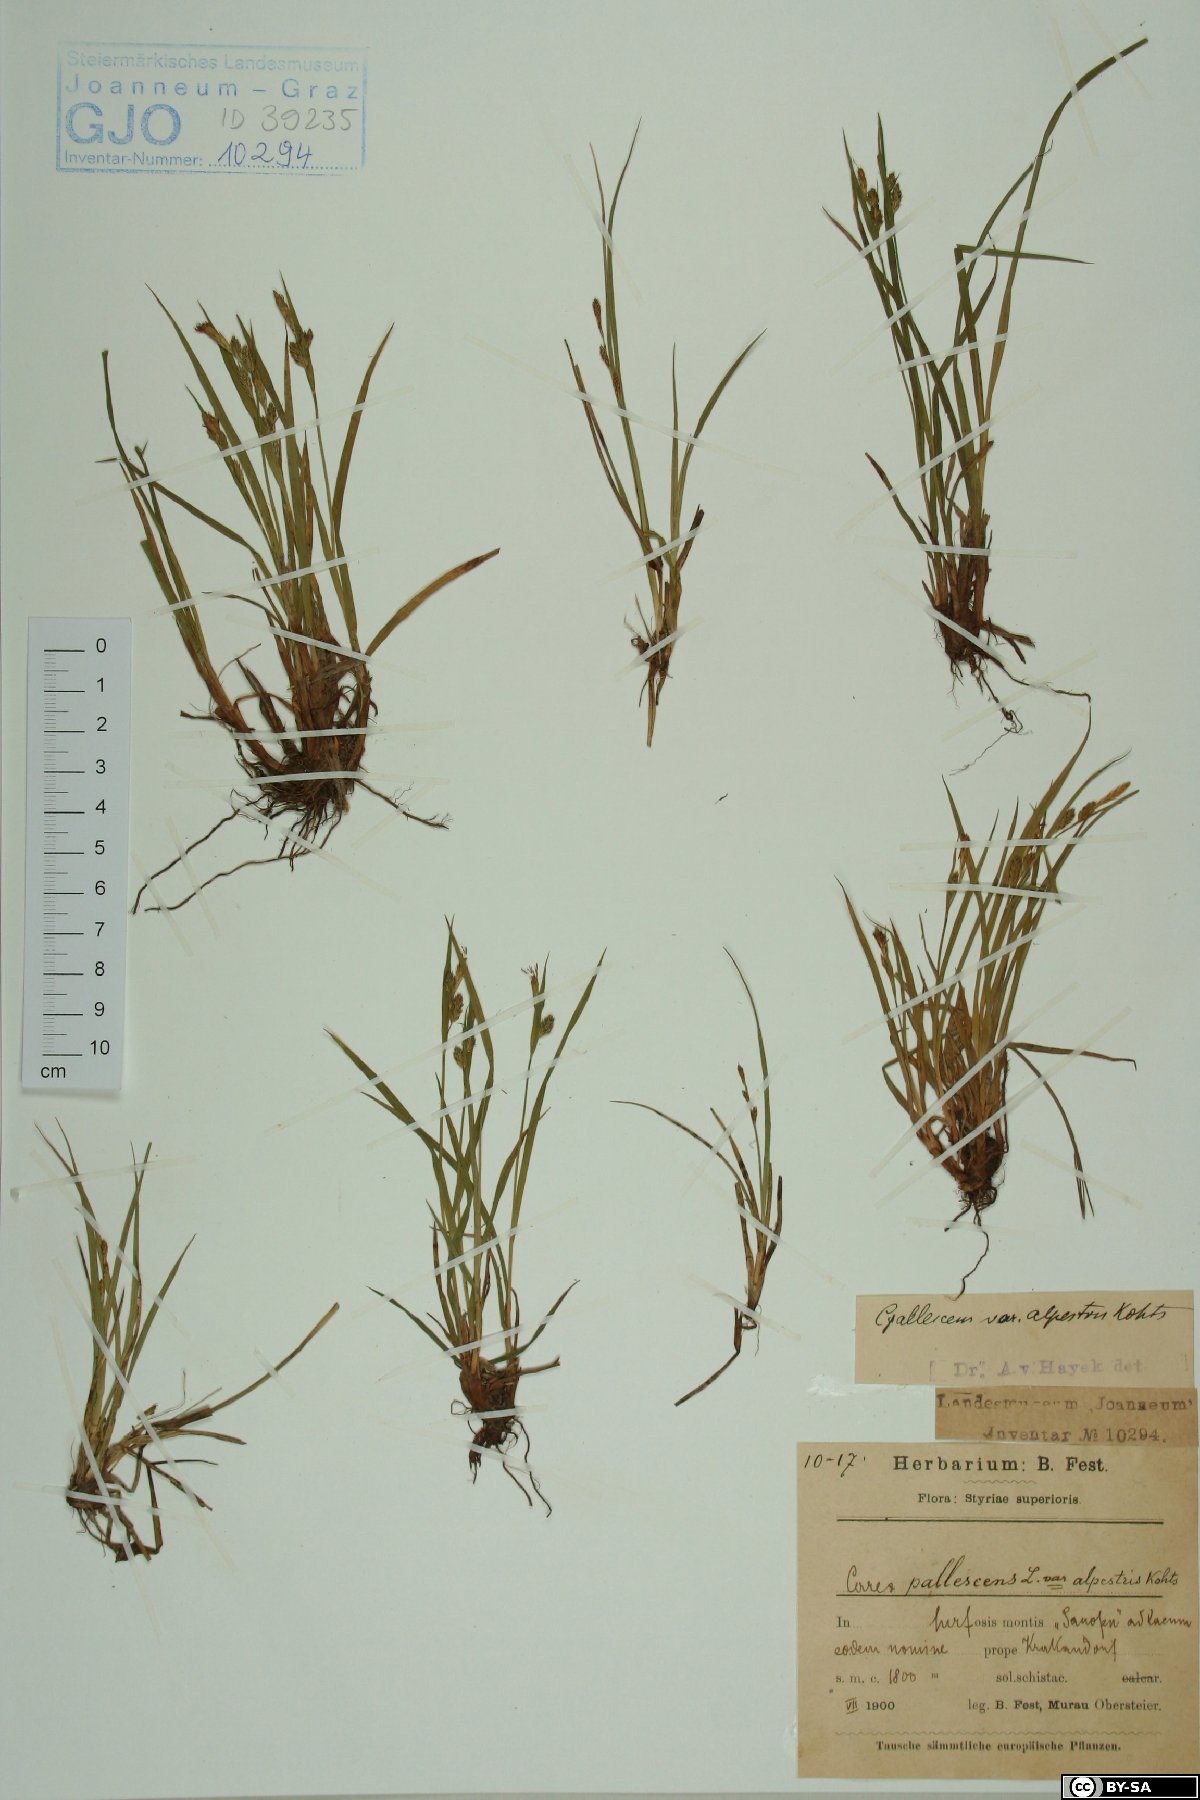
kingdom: Plantae
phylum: Tracheophyta
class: Liliopsida
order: Poales
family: Cyperaceae
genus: Carex
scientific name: Carex pallescens
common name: Pale sedge
